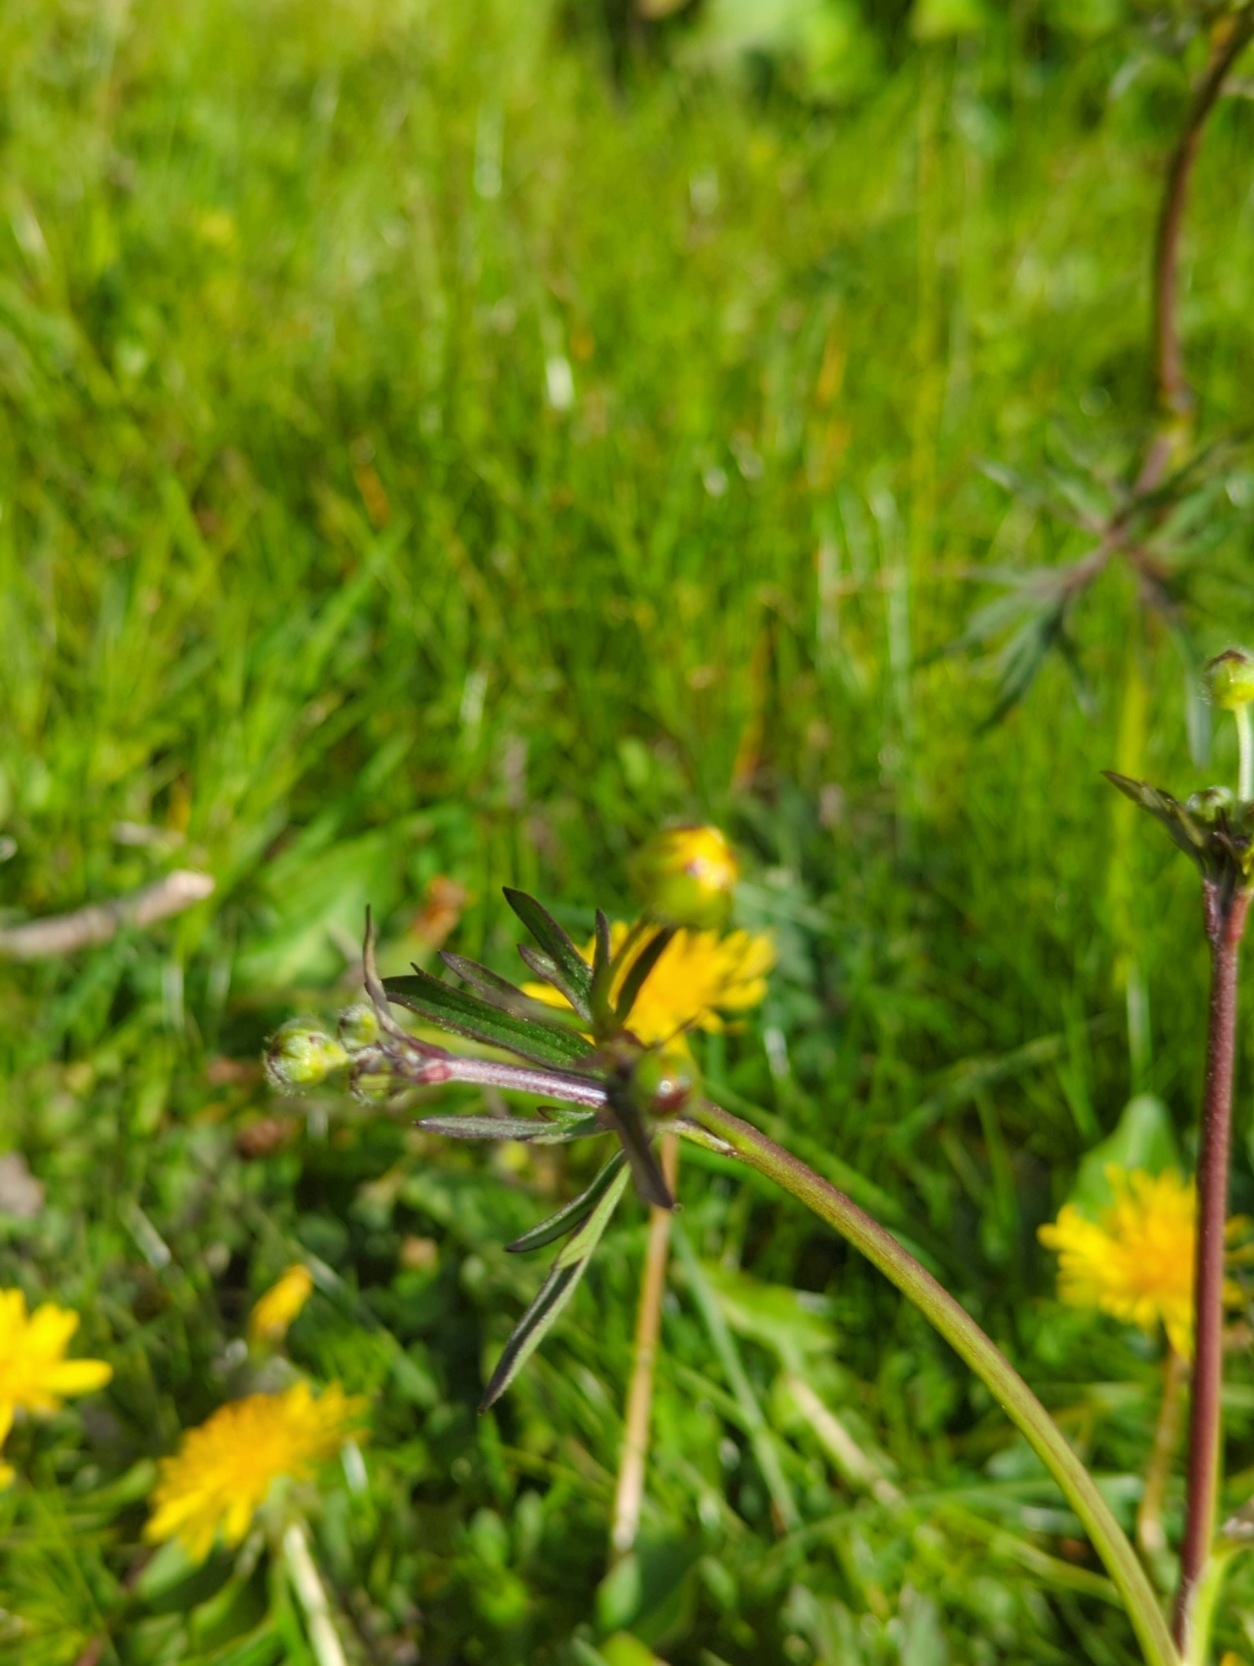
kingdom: Plantae
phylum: Tracheophyta
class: Magnoliopsida
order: Ranunculales
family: Ranunculaceae
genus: Ranunculus
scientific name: Ranunculus acris
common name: Bidende ranunkel
